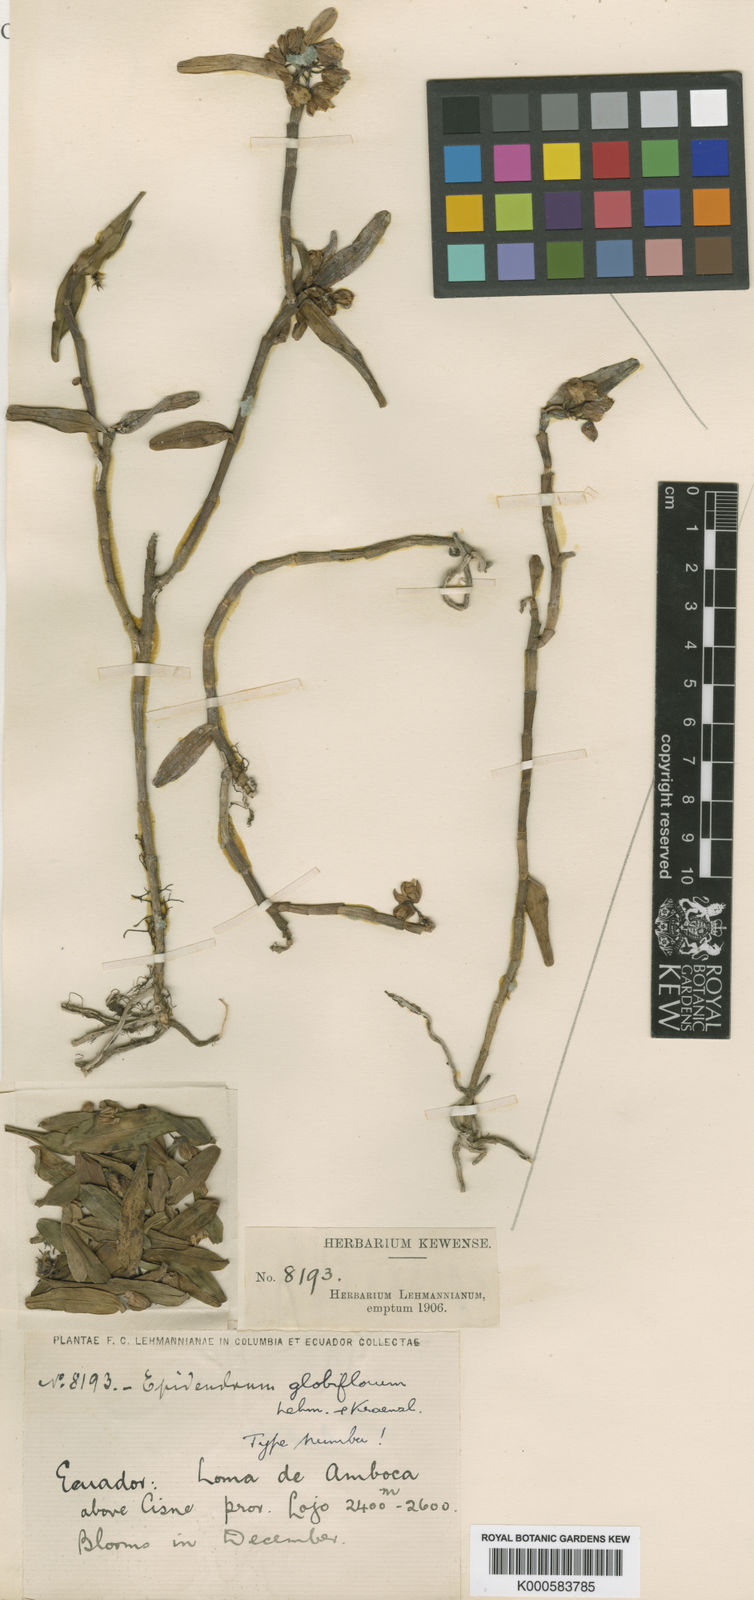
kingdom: Plantae
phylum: Tracheophyta
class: Liliopsida
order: Asparagales
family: Orchidaceae
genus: Epidendrum
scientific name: Epidendrum globiflorum
